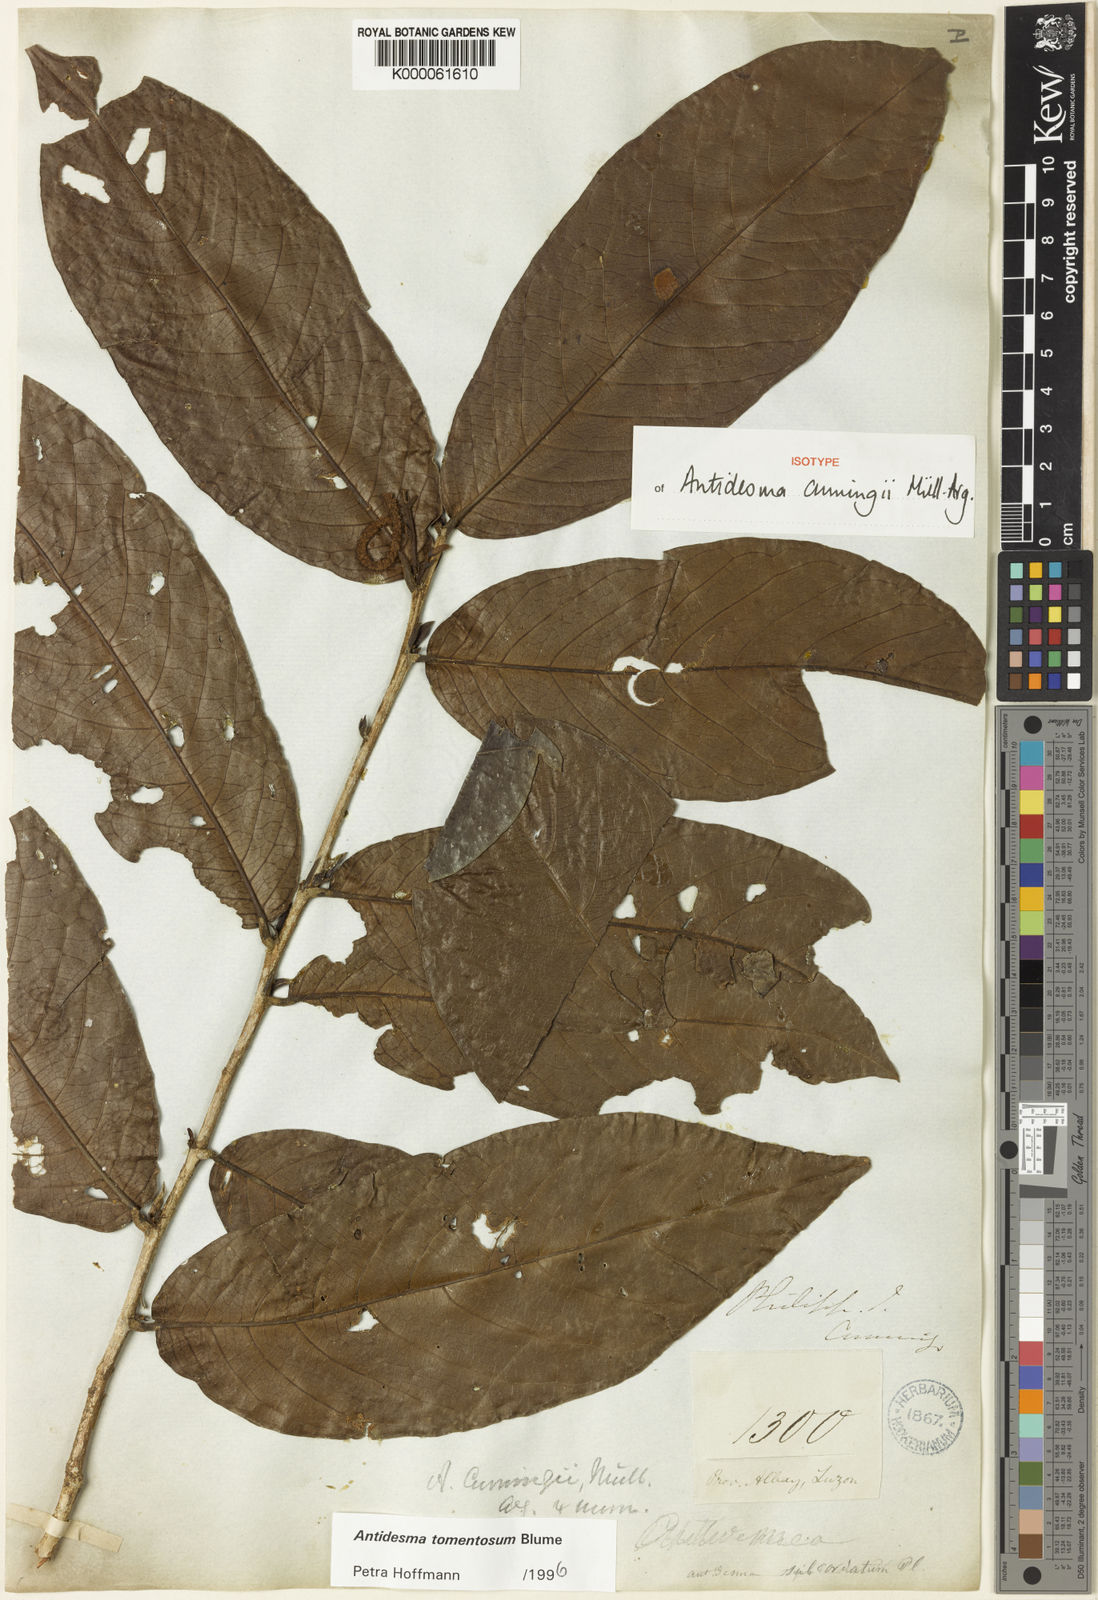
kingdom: Plantae
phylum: Tracheophyta
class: Magnoliopsida
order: Malpighiales
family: Phyllanthaceae
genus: Antidesma
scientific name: Antidesma tomentosum
